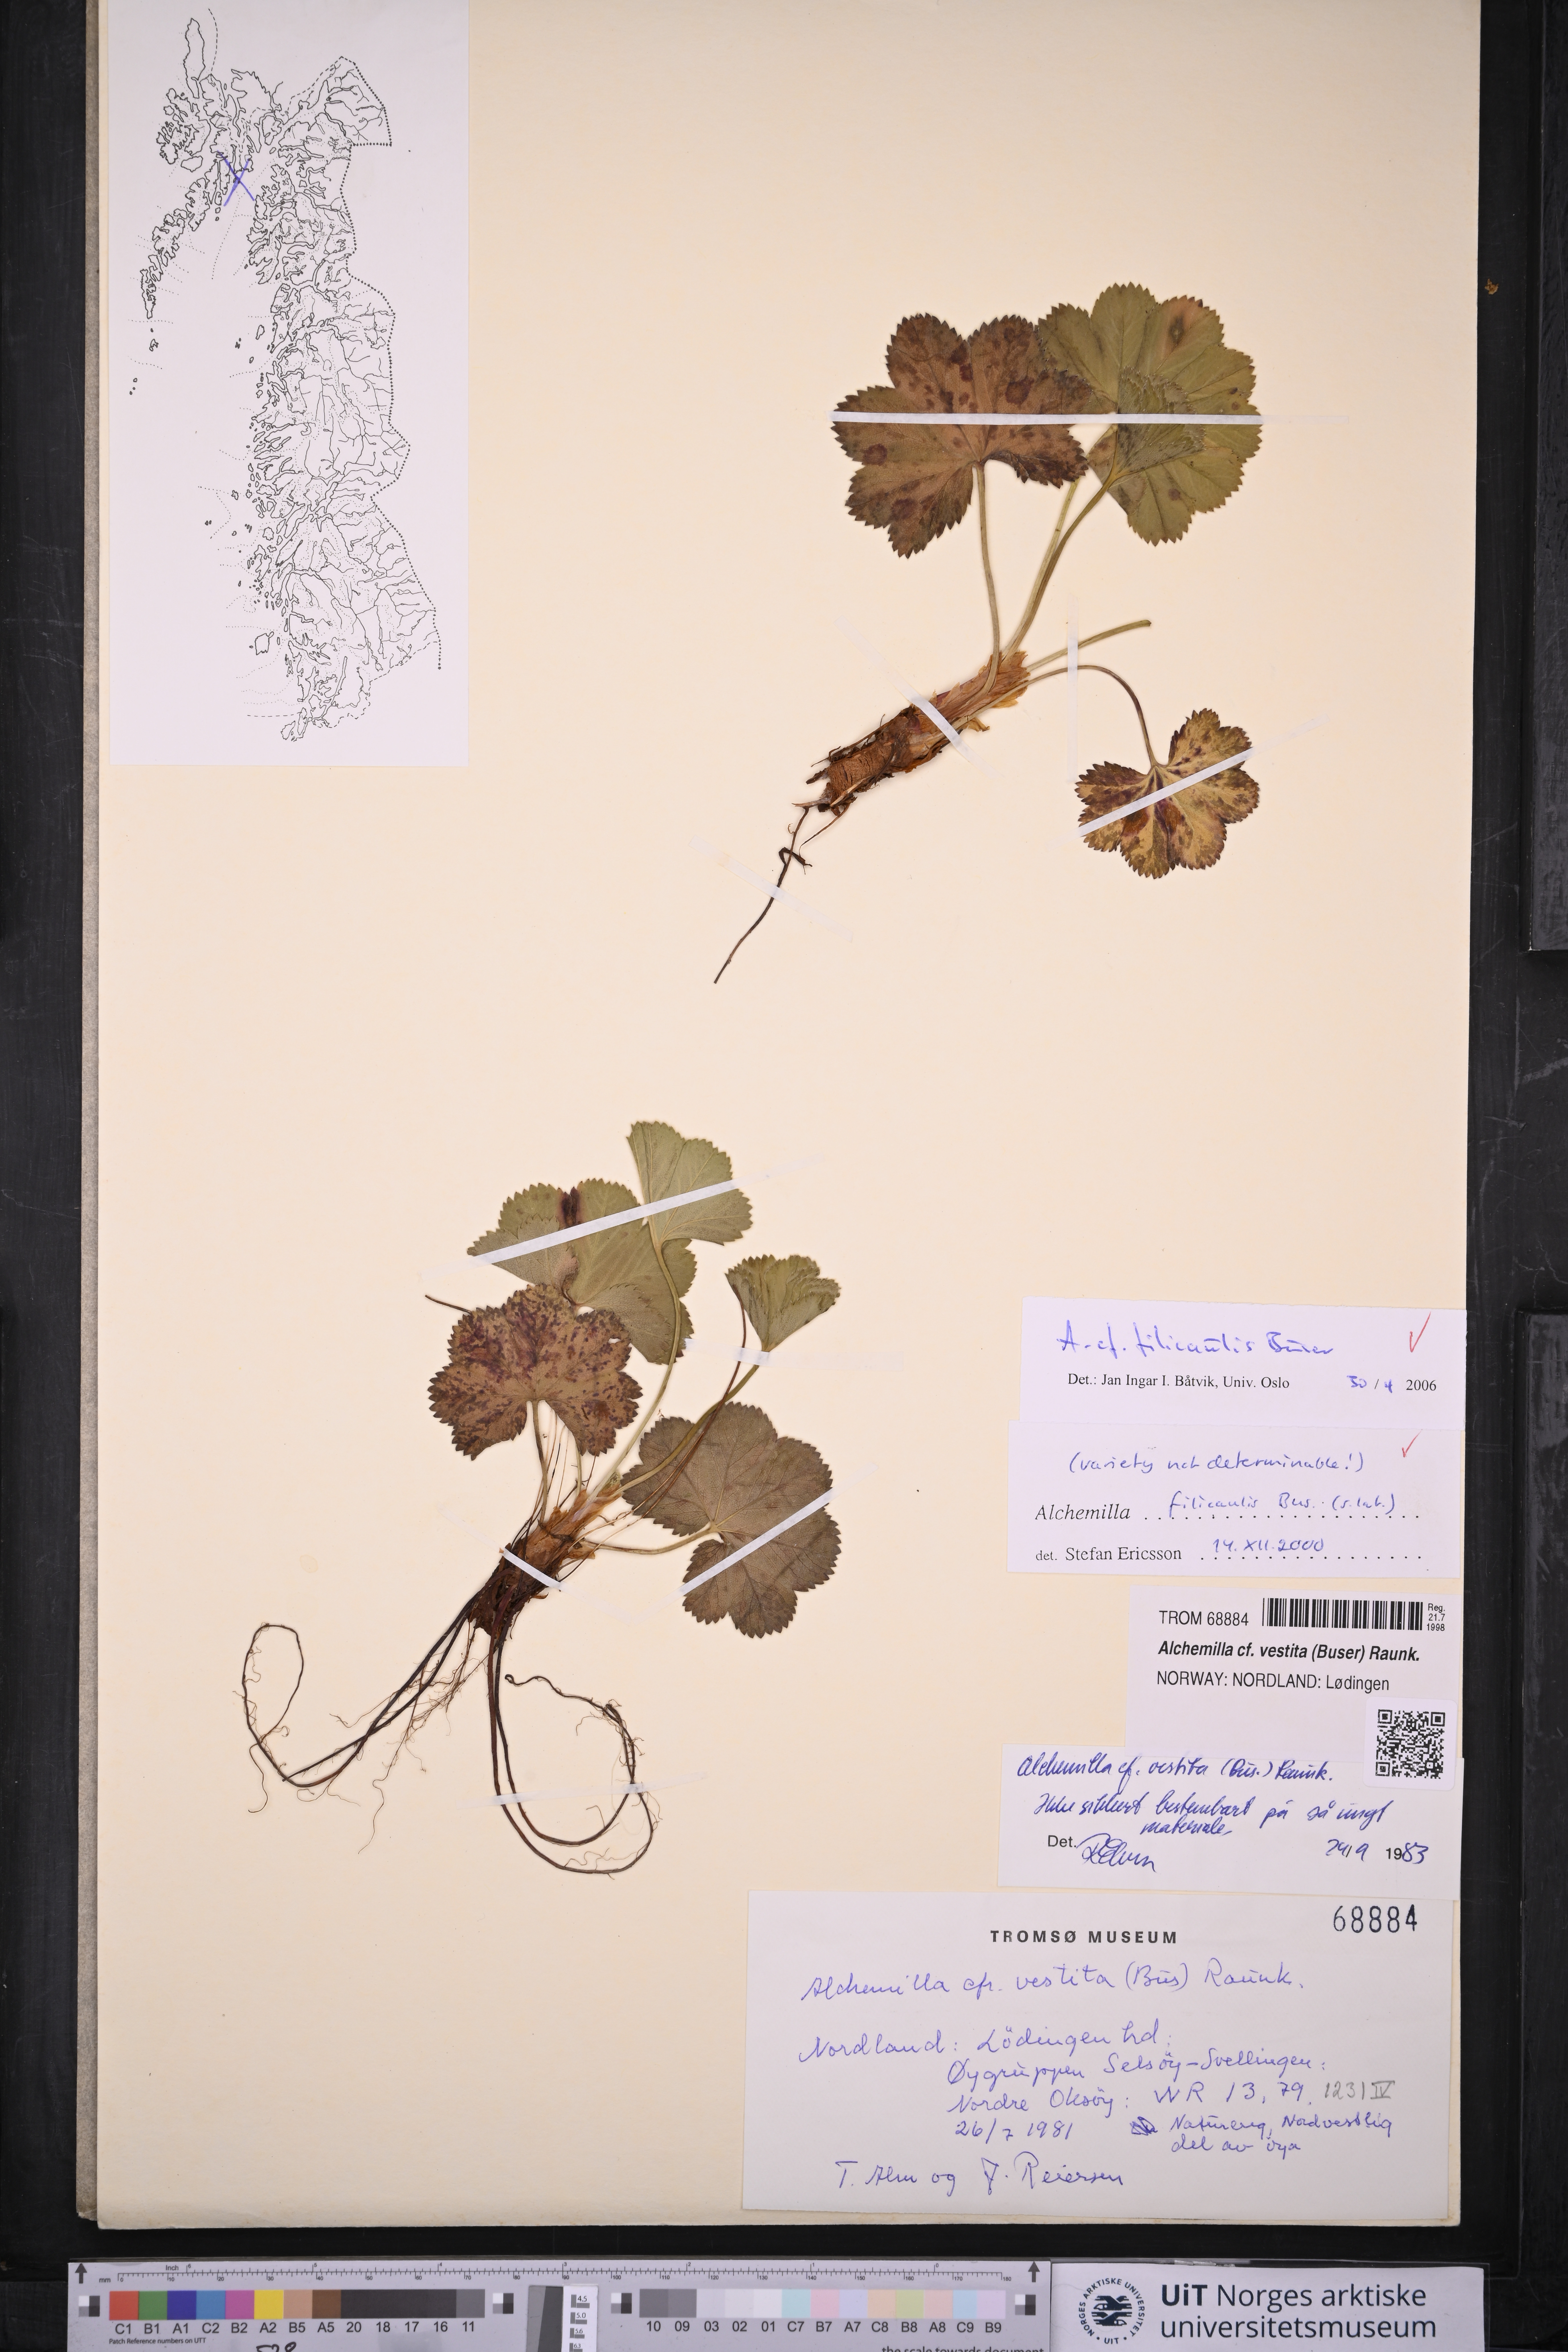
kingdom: Plantae
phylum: Tracheophyta
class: Magnoliopsida
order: Rosales
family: Rosaceae
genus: Alchemilla
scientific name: Alchemilla filicaulis
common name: Hairy lady's-mantle
